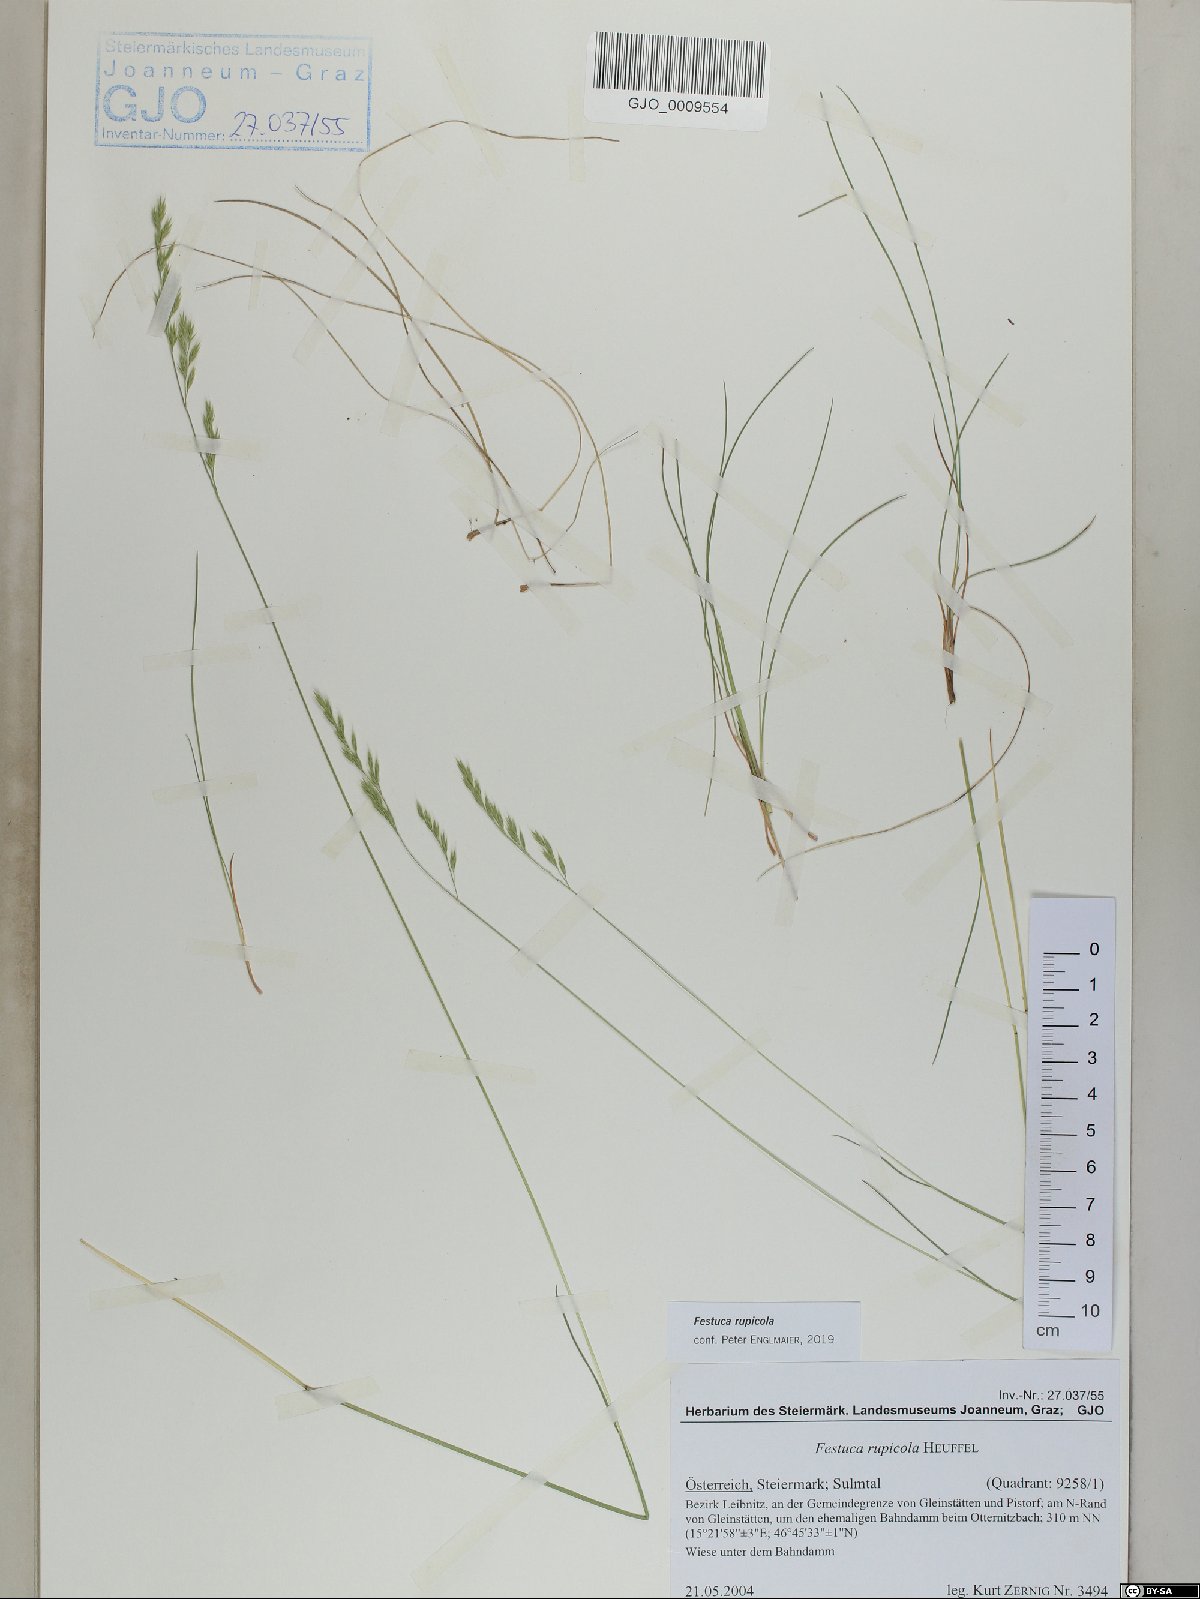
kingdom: Plantae
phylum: Tracheophyta
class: Liliopsida
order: Poales
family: Poaceae
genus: Festuca
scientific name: Festuca rupicola
